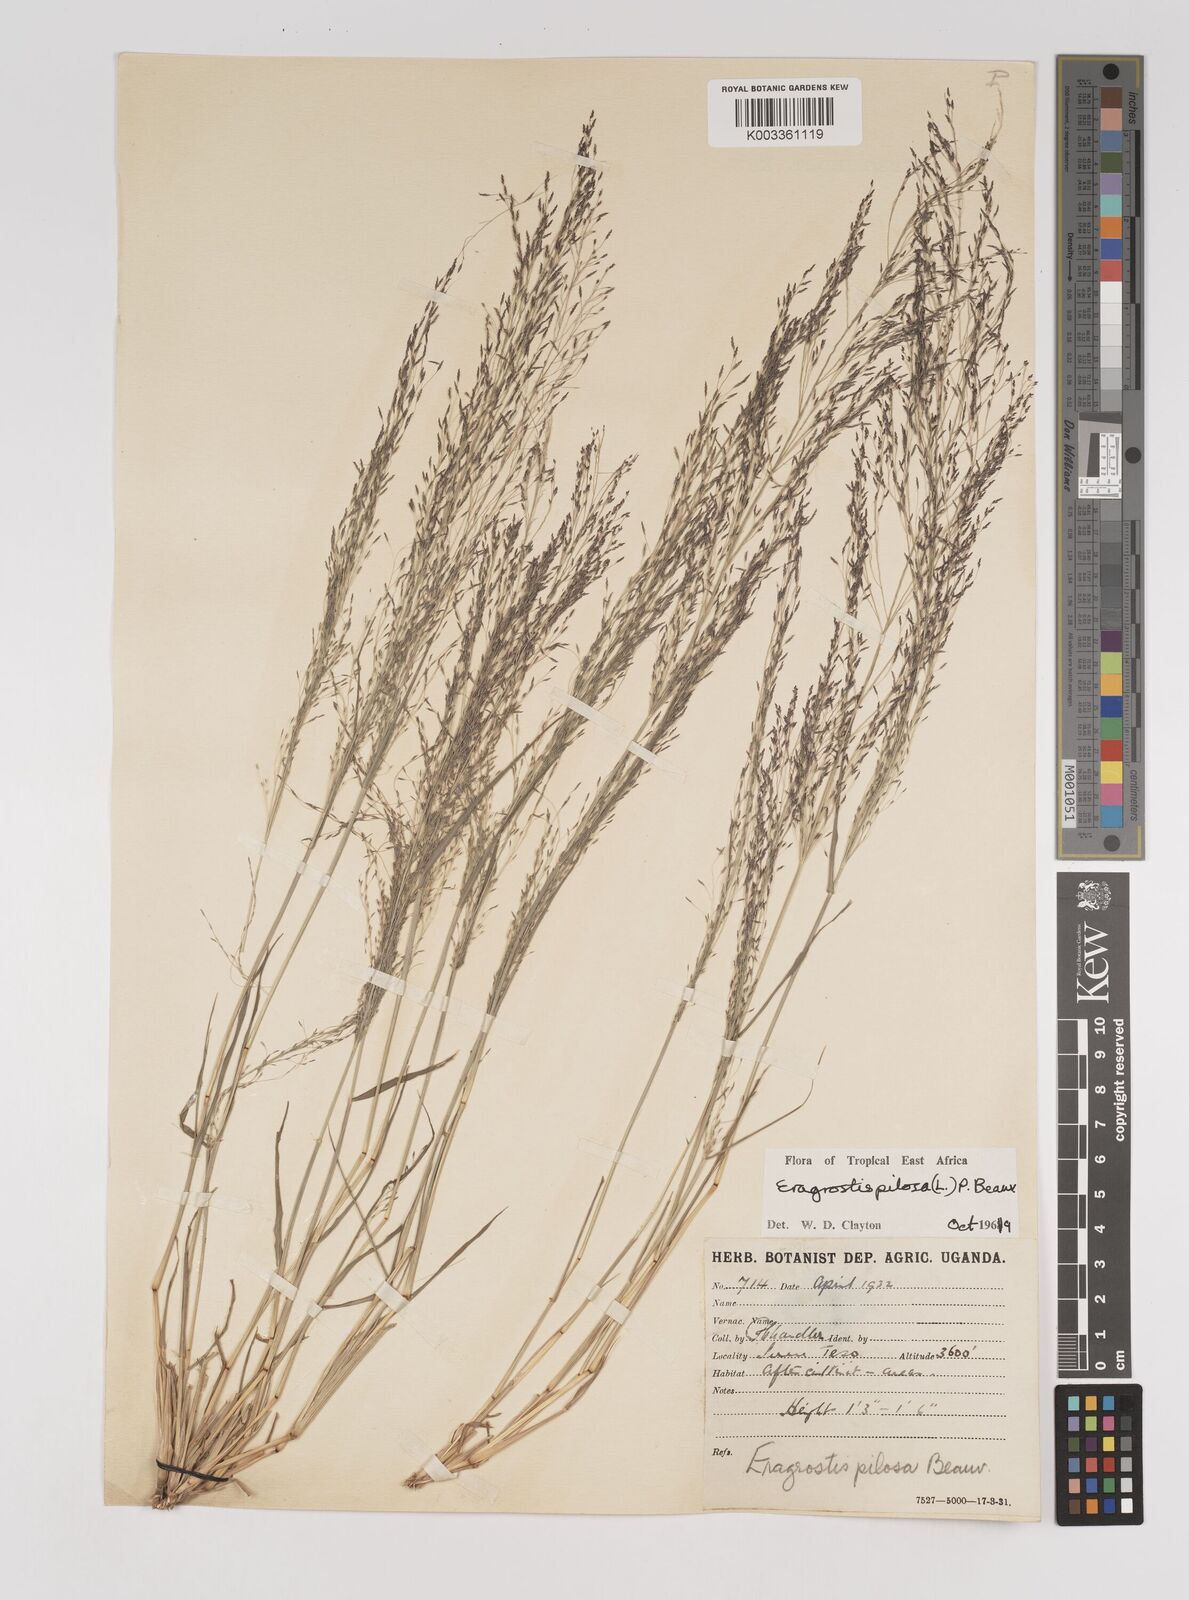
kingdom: Plantae
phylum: Tracheophyta
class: Liliopsida
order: Poales
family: Poaceae
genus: Eragrostis
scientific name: Eragrostis pilosa
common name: Indian lovegrass
